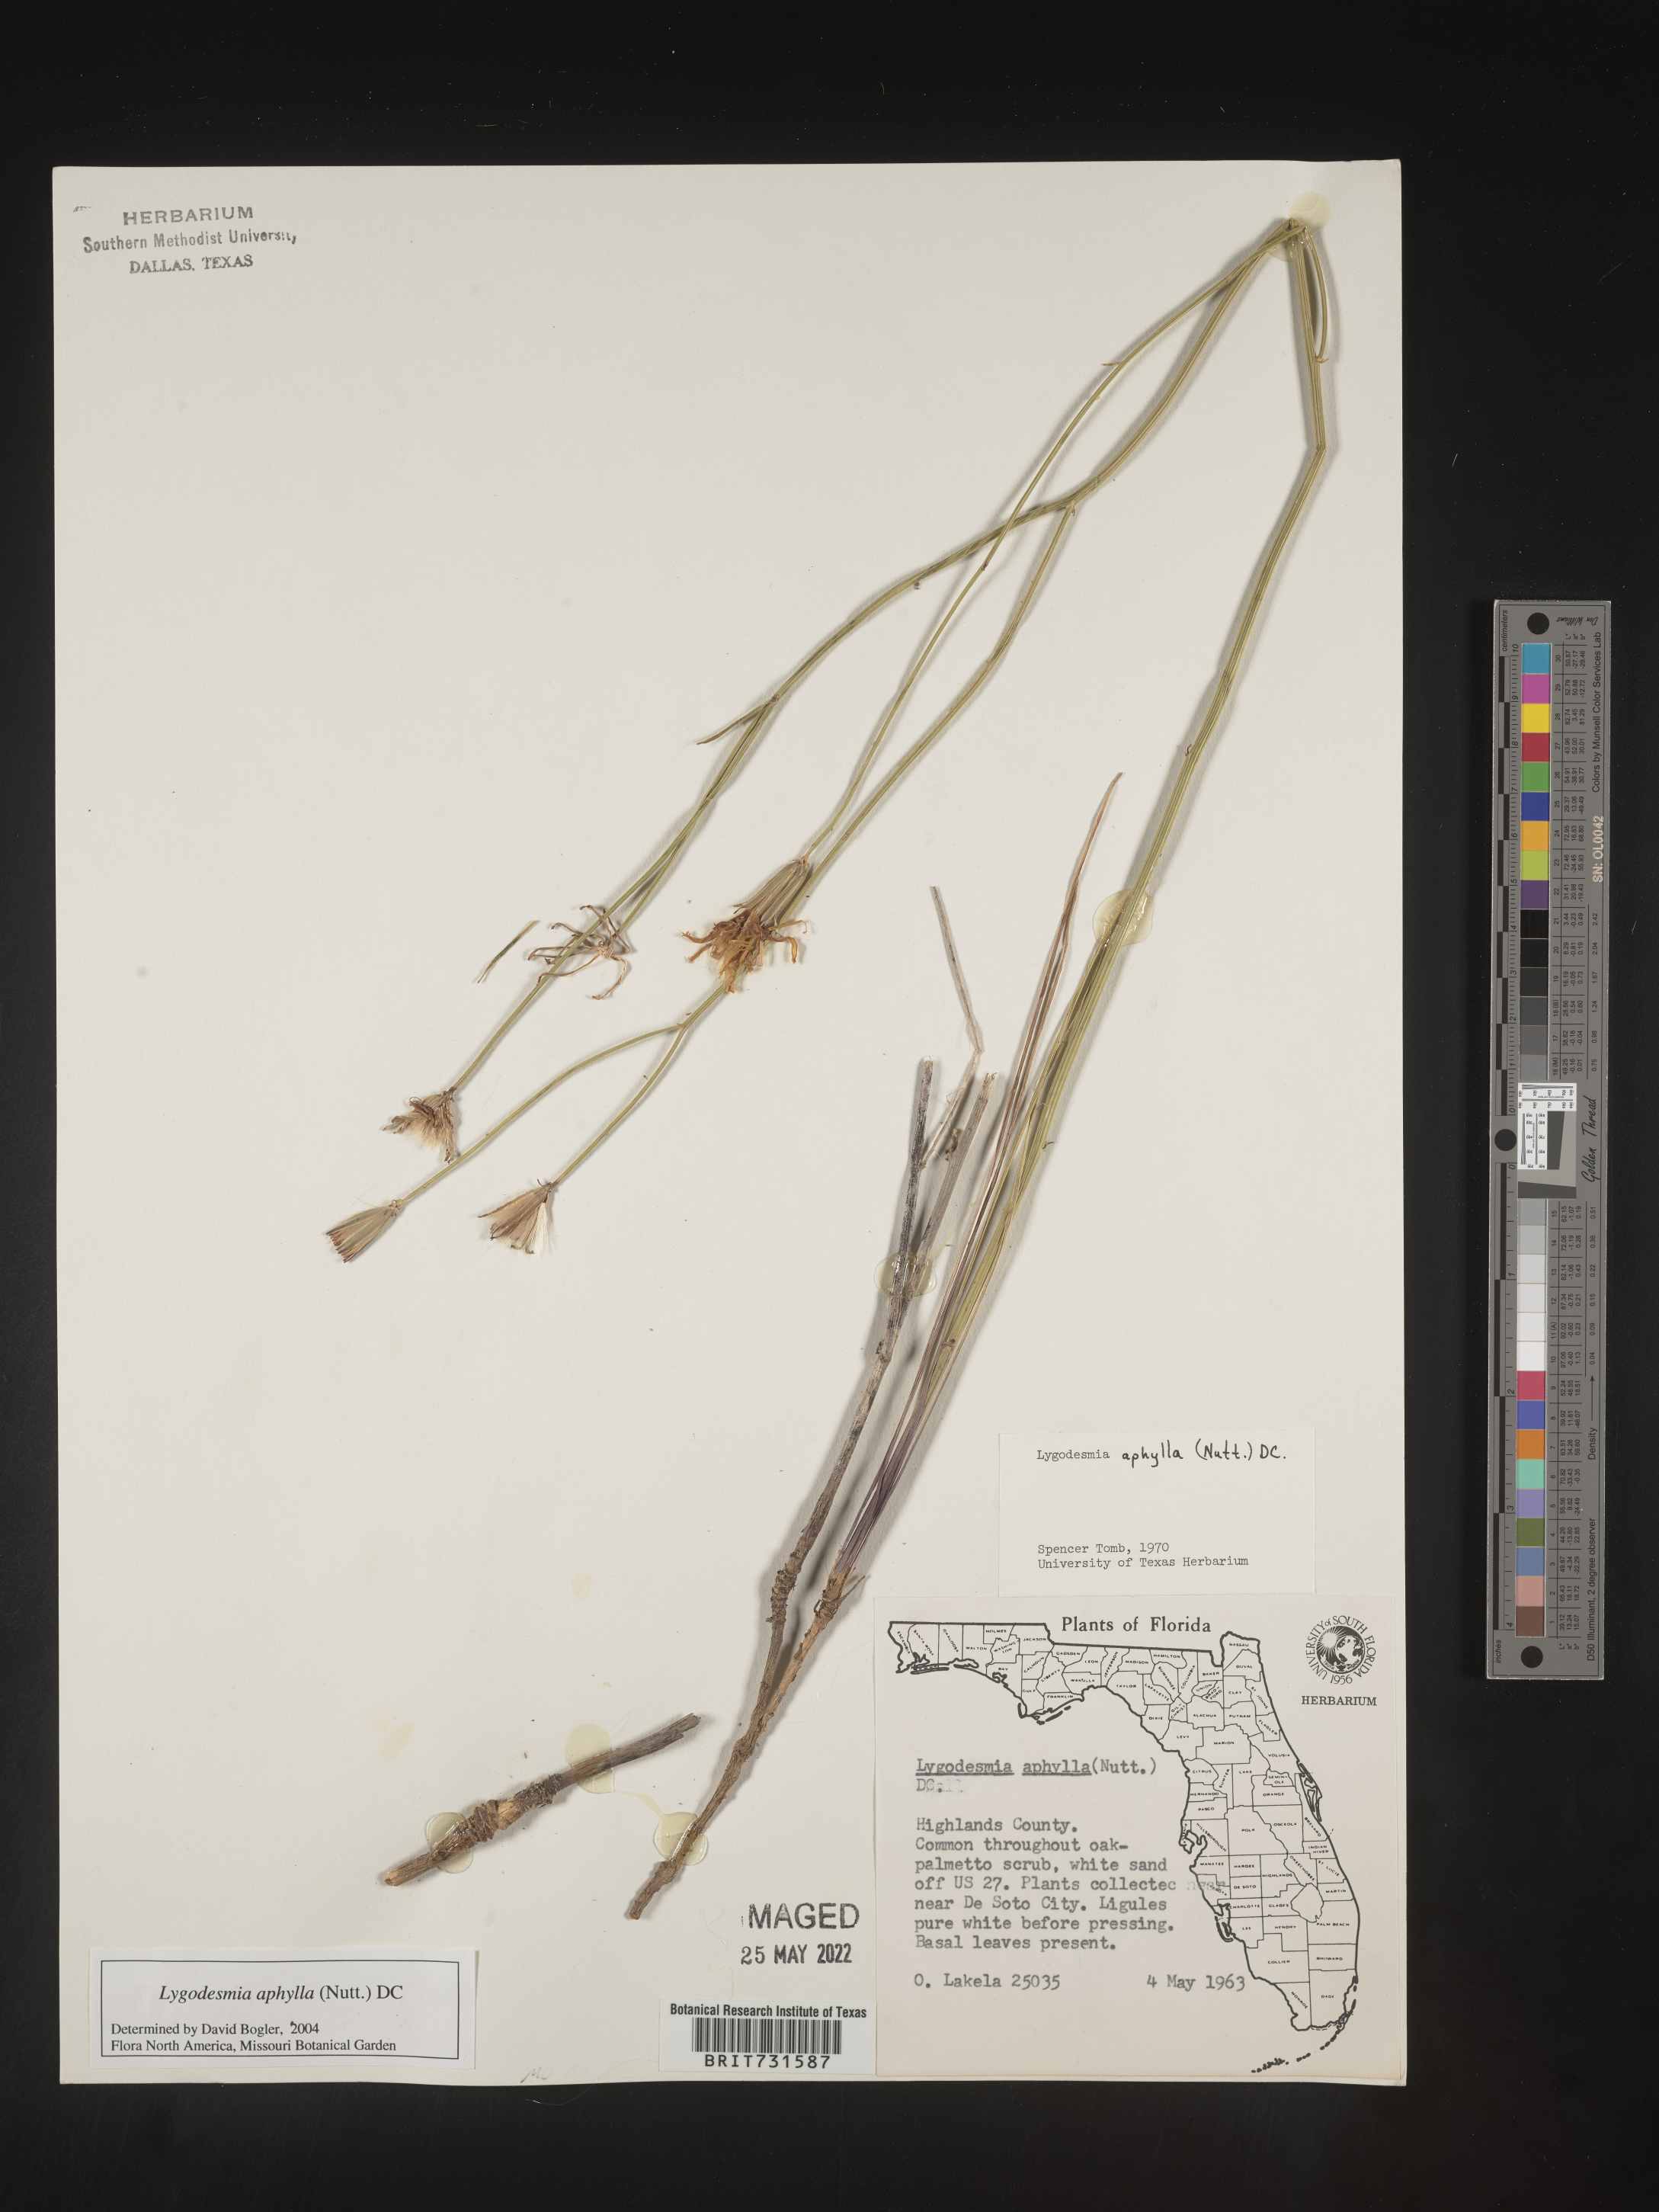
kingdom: Plantae
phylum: Tracheophyta
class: Magnoliopsida
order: Asterales
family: Asteraceae
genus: Lygodesmia
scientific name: Lygodesmia aphylla
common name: Rose-rush
